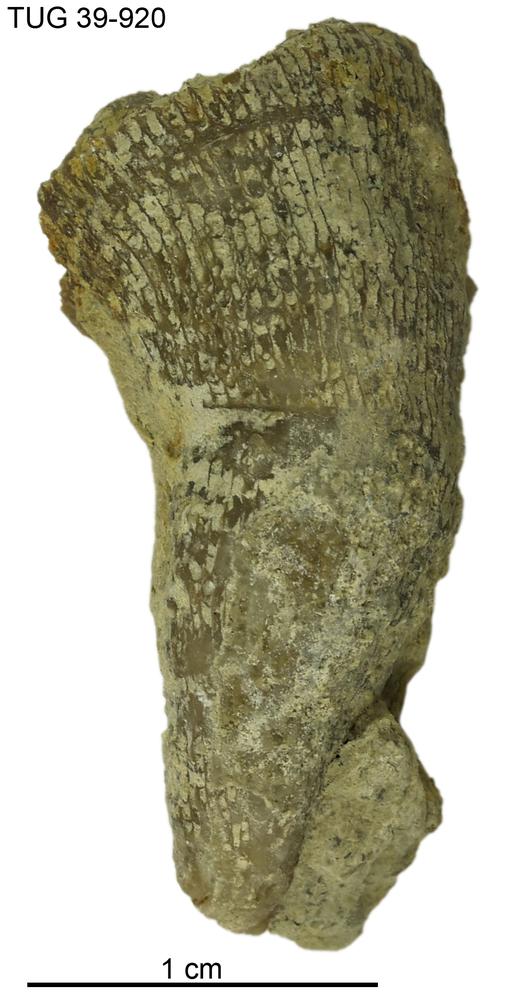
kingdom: Animalia
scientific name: Animalia
